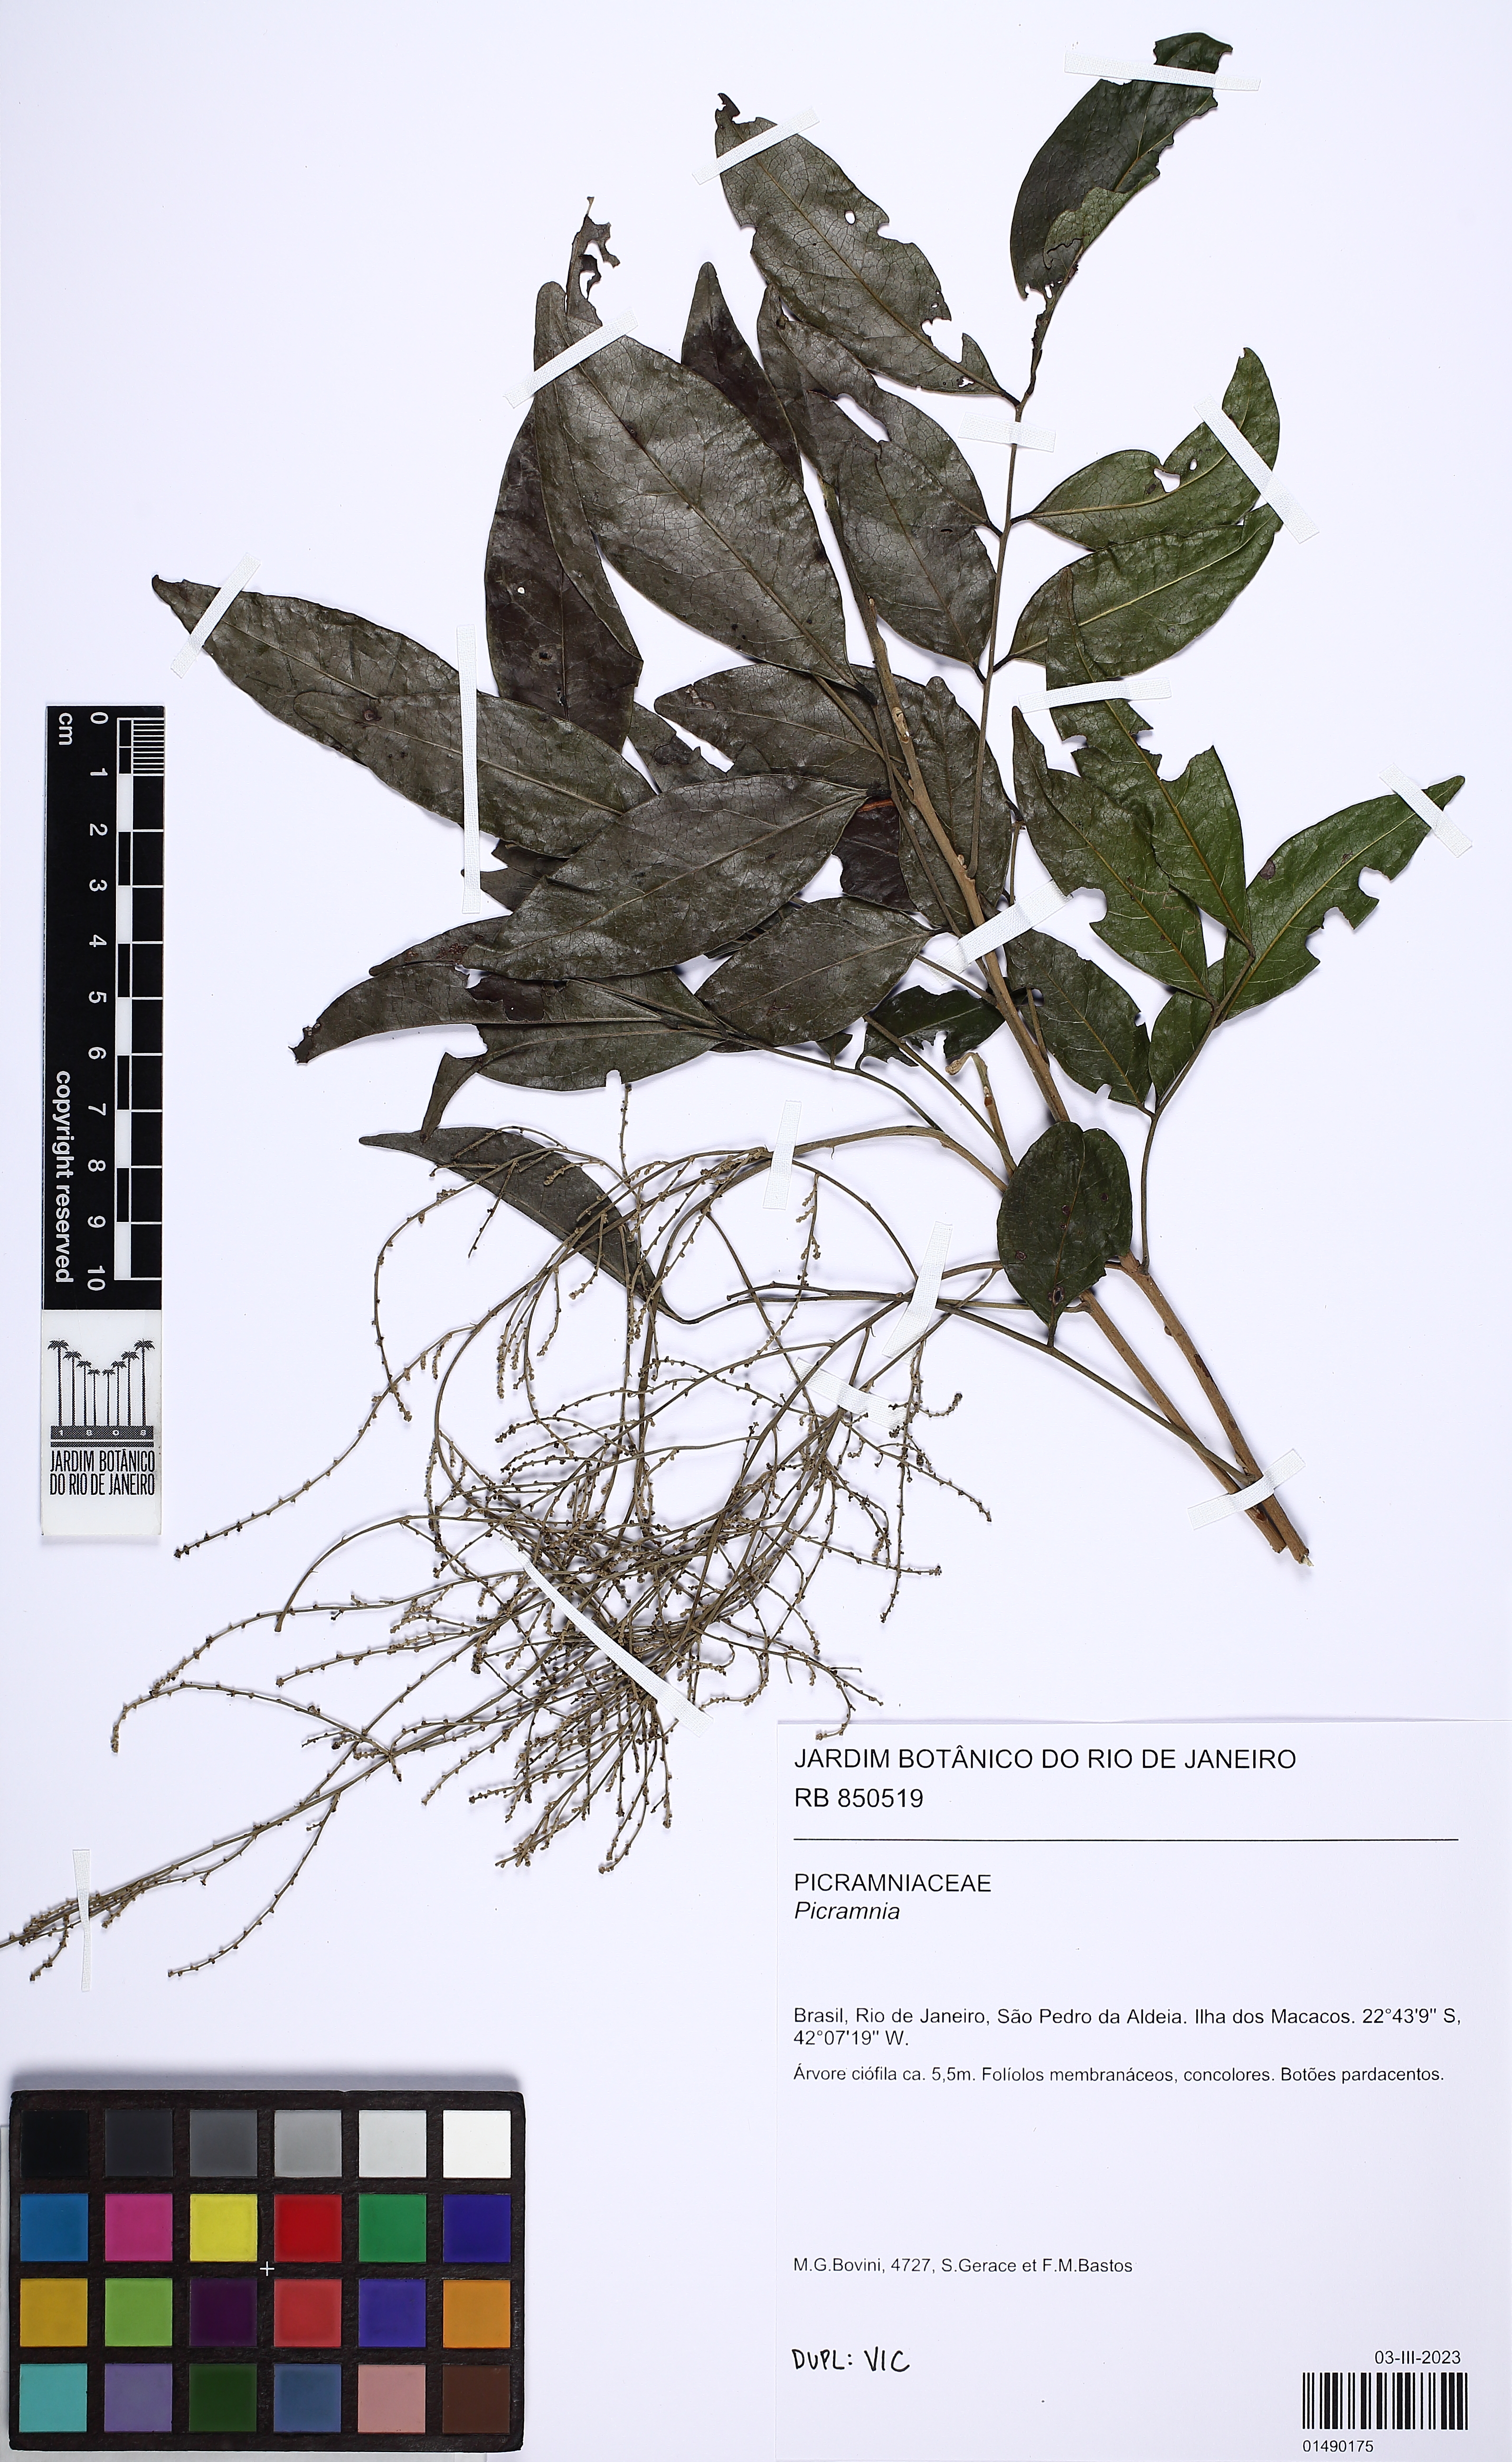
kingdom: Plantae
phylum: Tracheophyta
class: Magnoliopsida
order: Picramniales
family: Picramniaceae
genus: Picramnia
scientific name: Picramnia
